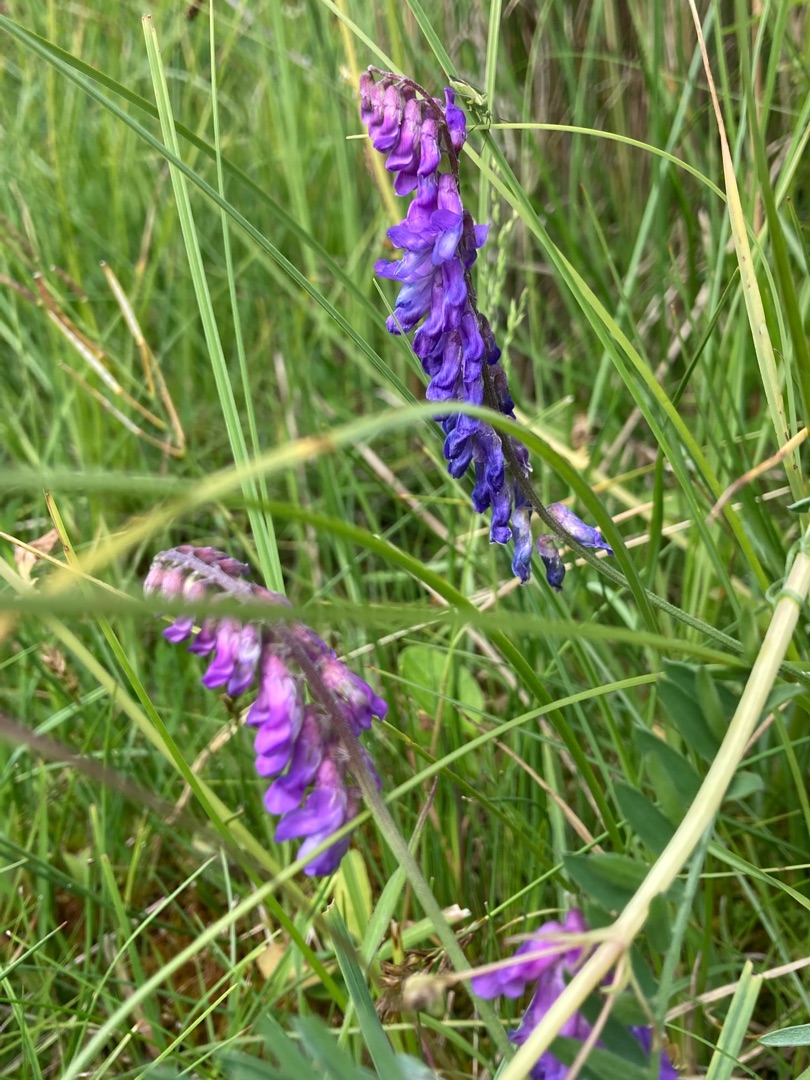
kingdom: Plantae
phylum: Tracheophyta
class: Magnoliopsida
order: Fabales
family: Fabaceae
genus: Vicia
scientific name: Vicia cracca
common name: Muse-vikke
